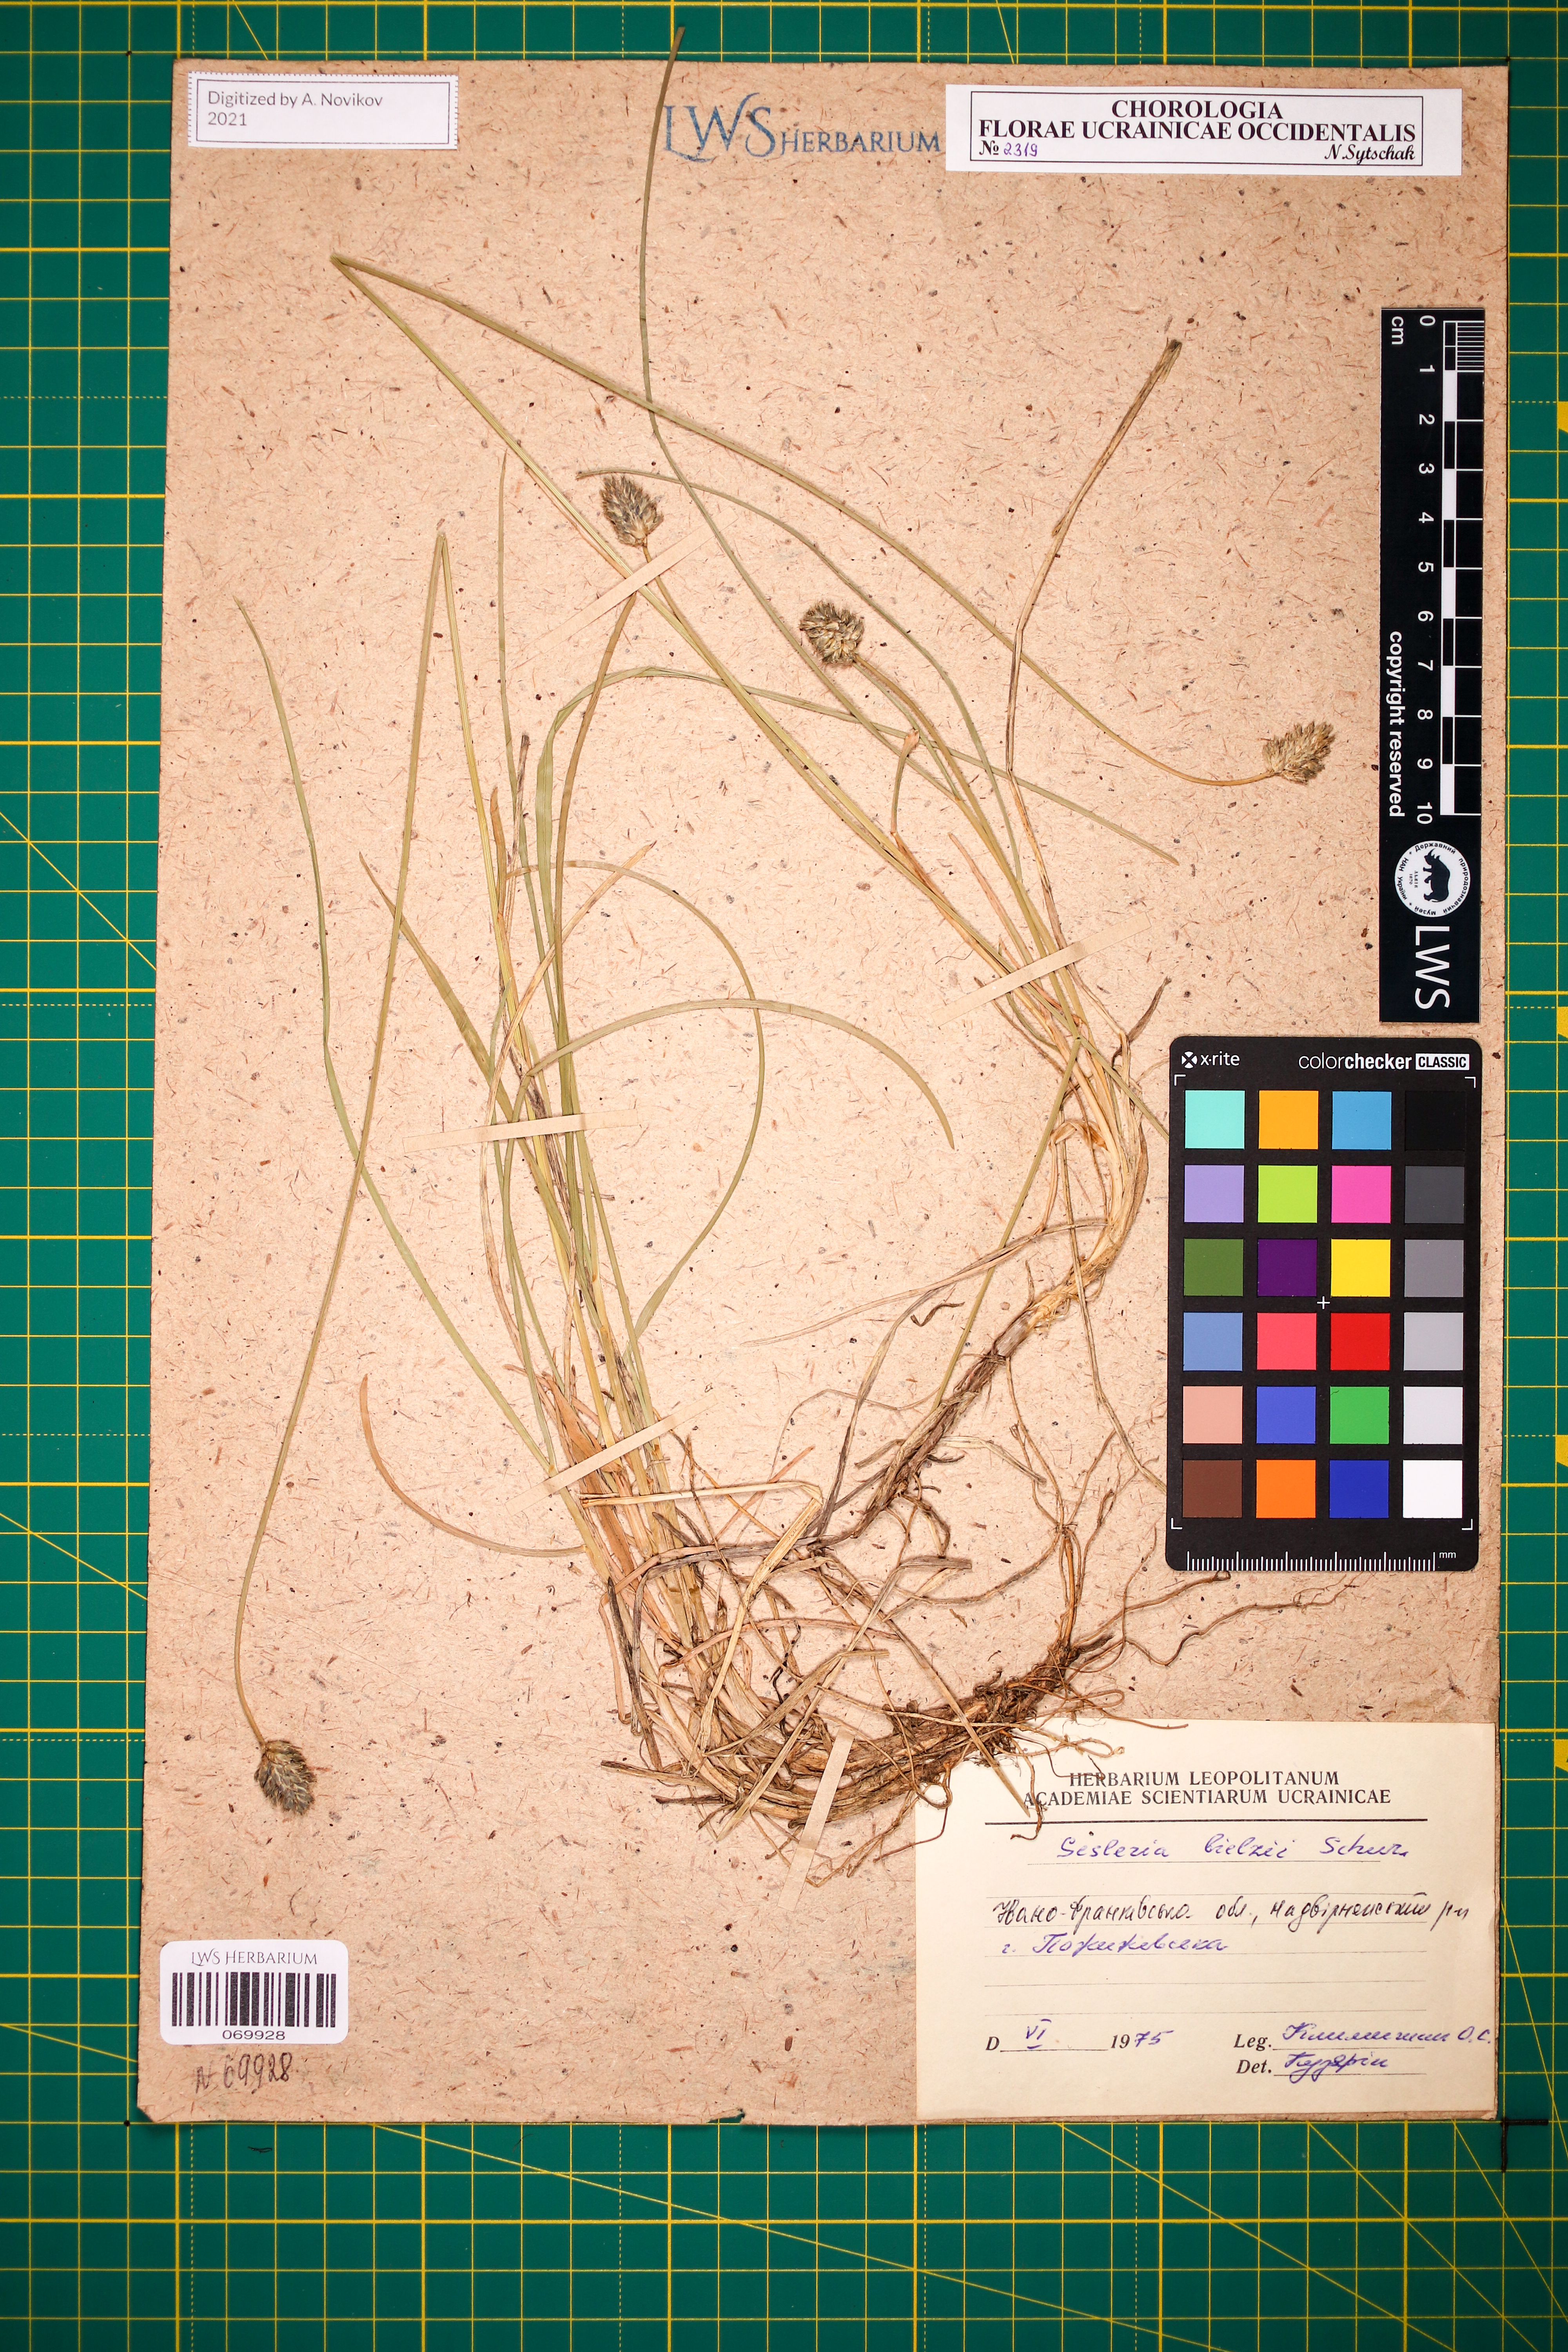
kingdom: Plantae
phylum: Tracheophyta
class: Liliopsida
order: Poales
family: Poaceae
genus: Sesleria
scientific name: Sesleria bielzii
